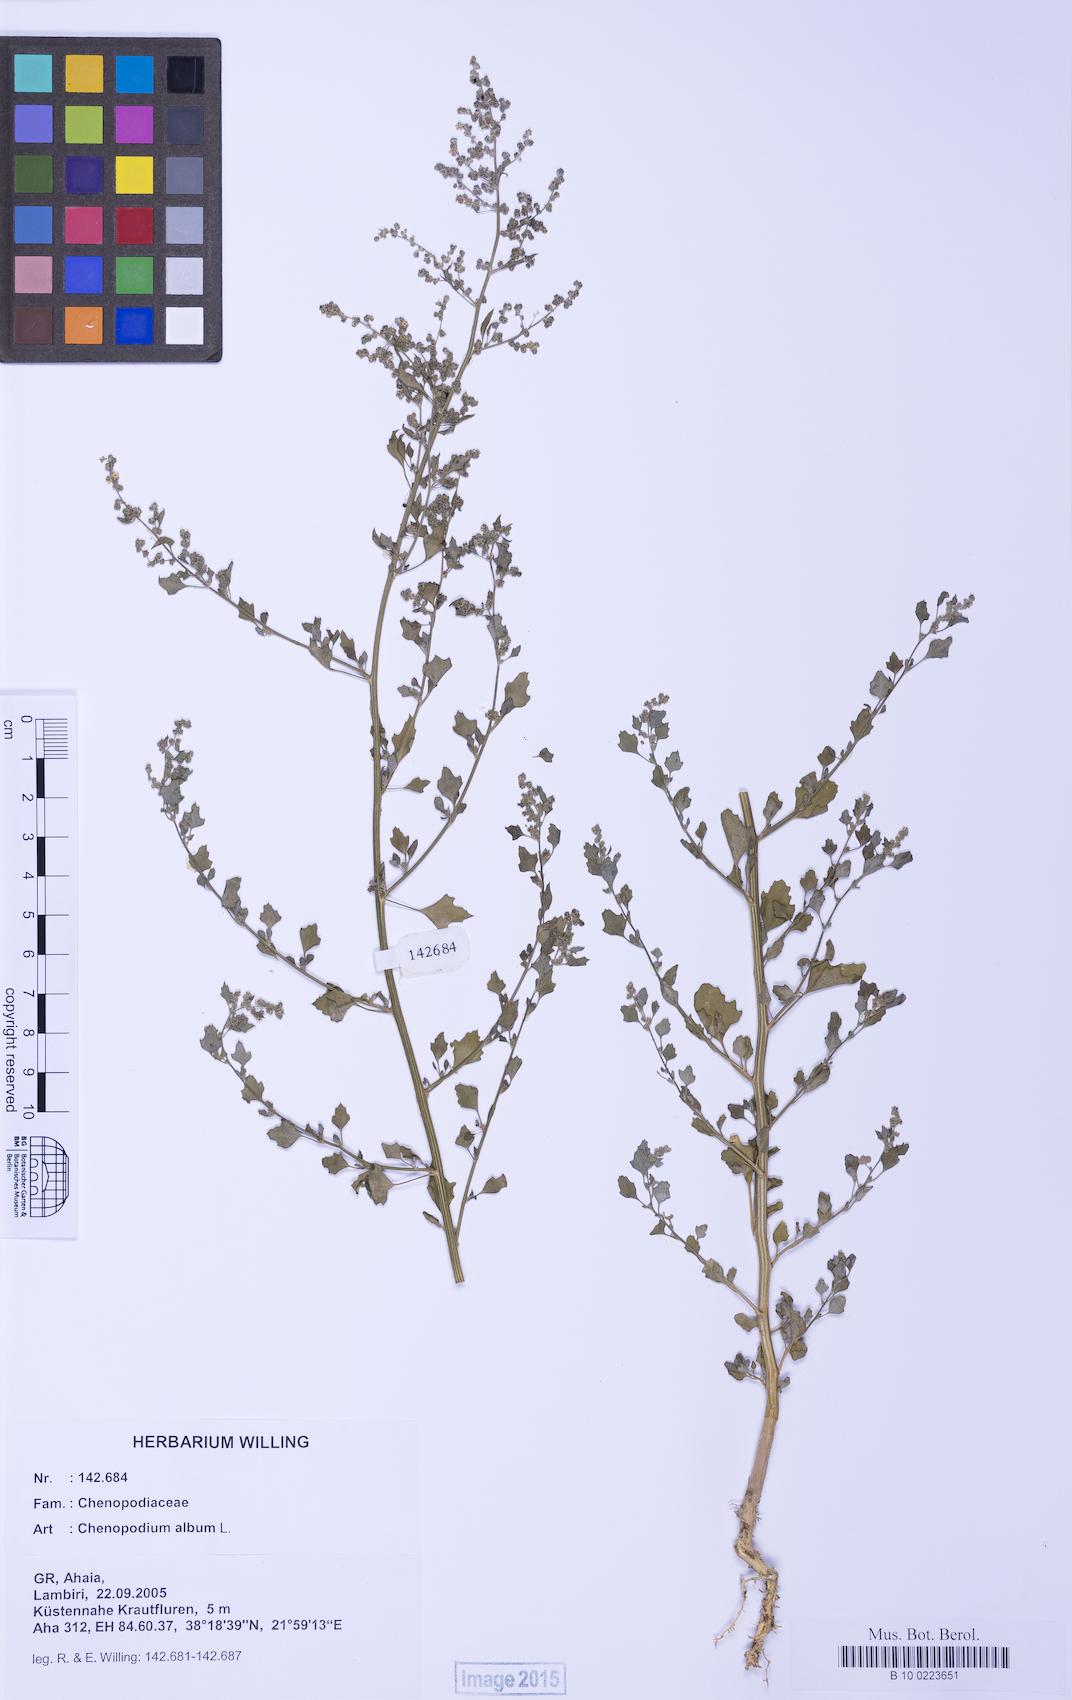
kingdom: Plantae
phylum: Tracheophyta
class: Magnoliopsida
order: Caryophyllales
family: Amaranthaceae
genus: Chenopodium
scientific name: Chenopodium opulifolium
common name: Grey goosefoot
